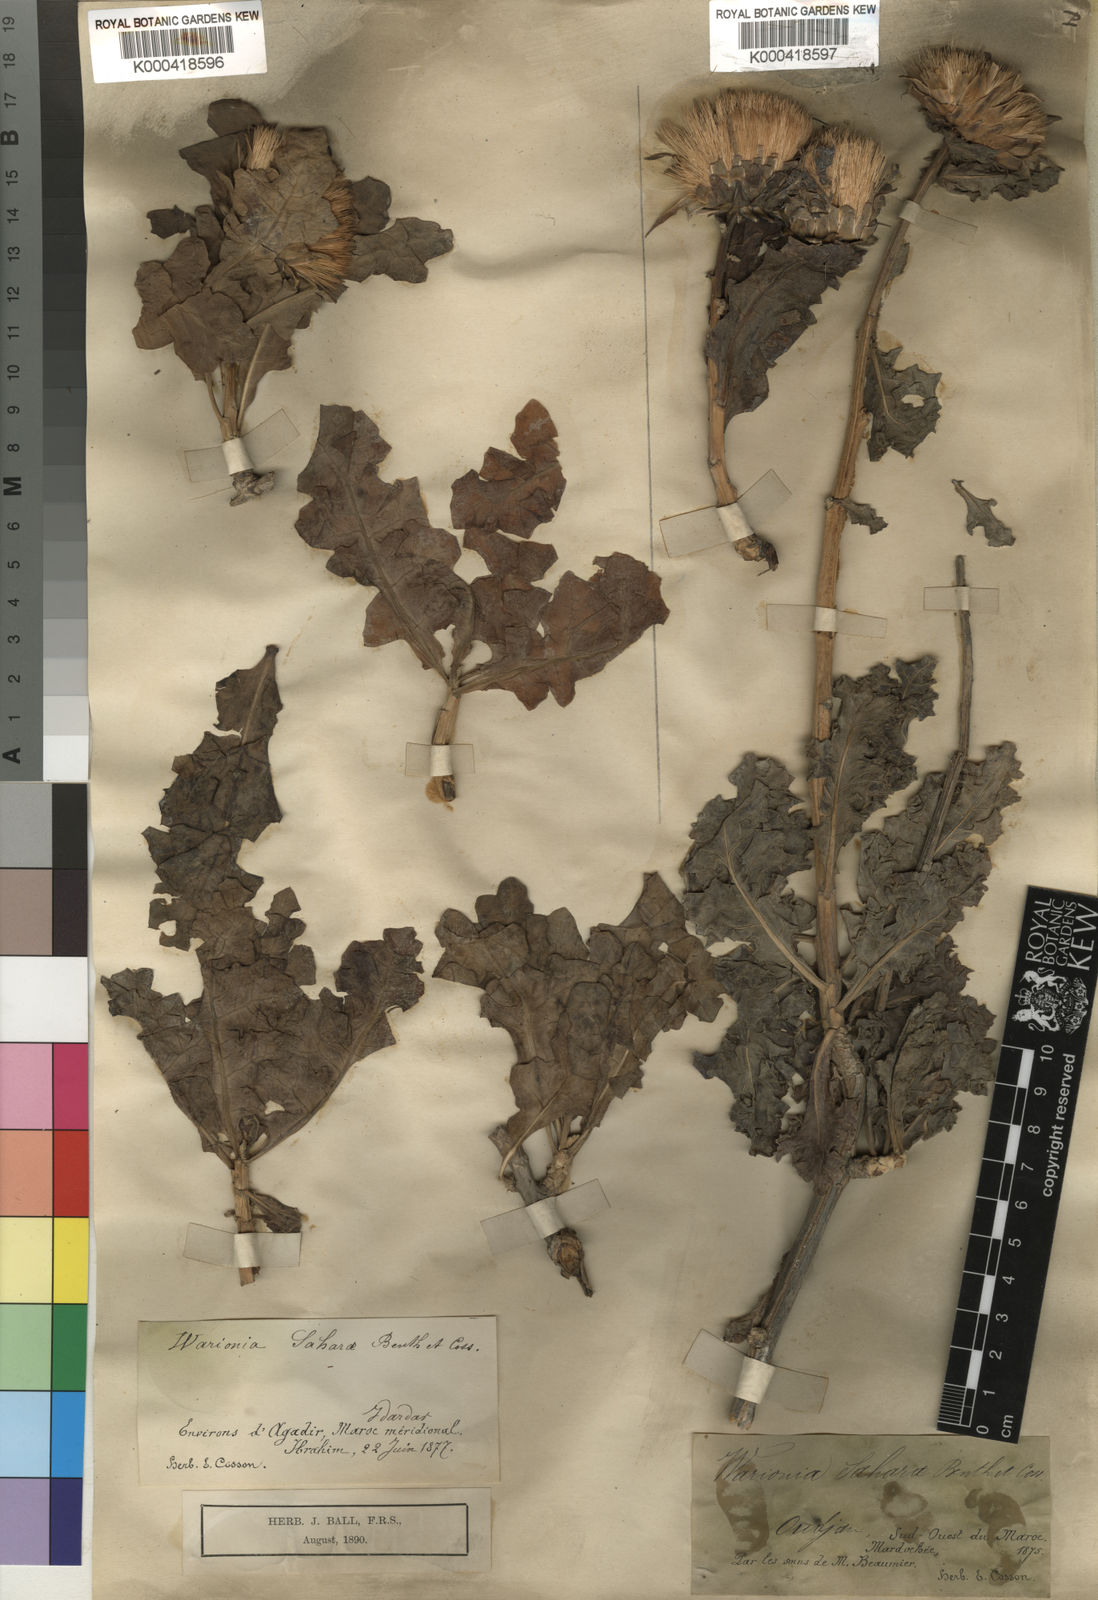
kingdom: Plantae
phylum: Tracheophyta
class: Magnoliopsida
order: Asterales
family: Asteraceae
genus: Warionia
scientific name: Warionia saharae
